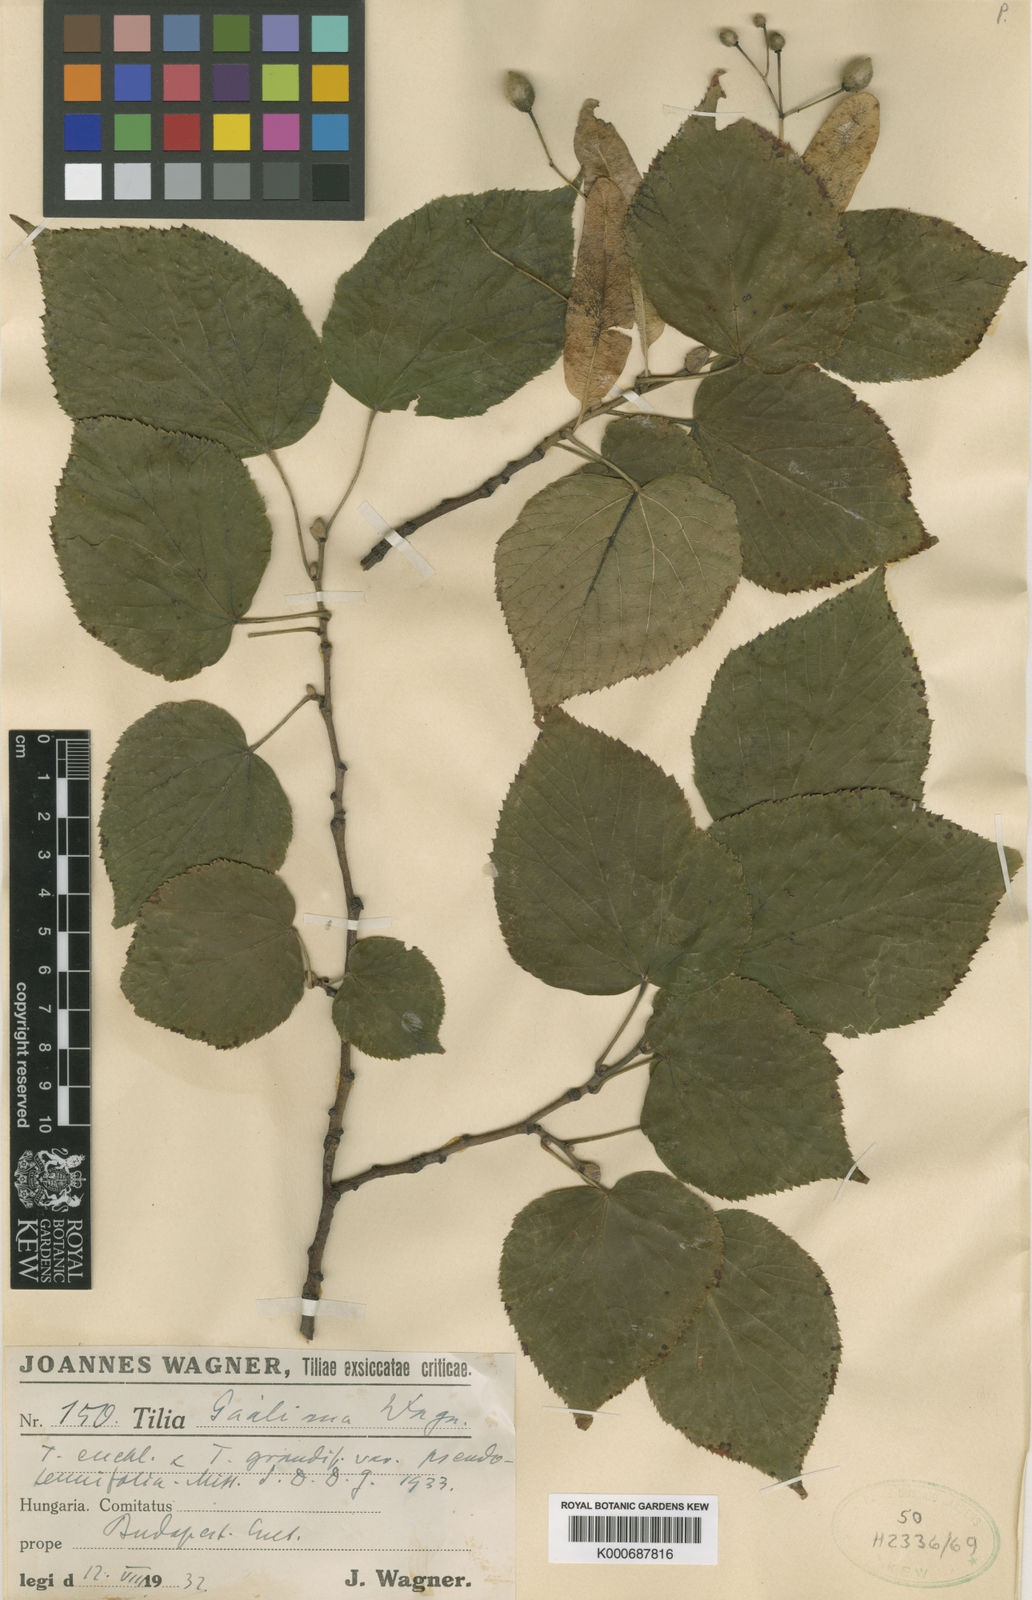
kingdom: Plantae
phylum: Tracheophyta
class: Magnoliopsida
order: Malvales
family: Malvaceae
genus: Tilia
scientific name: Tilia
